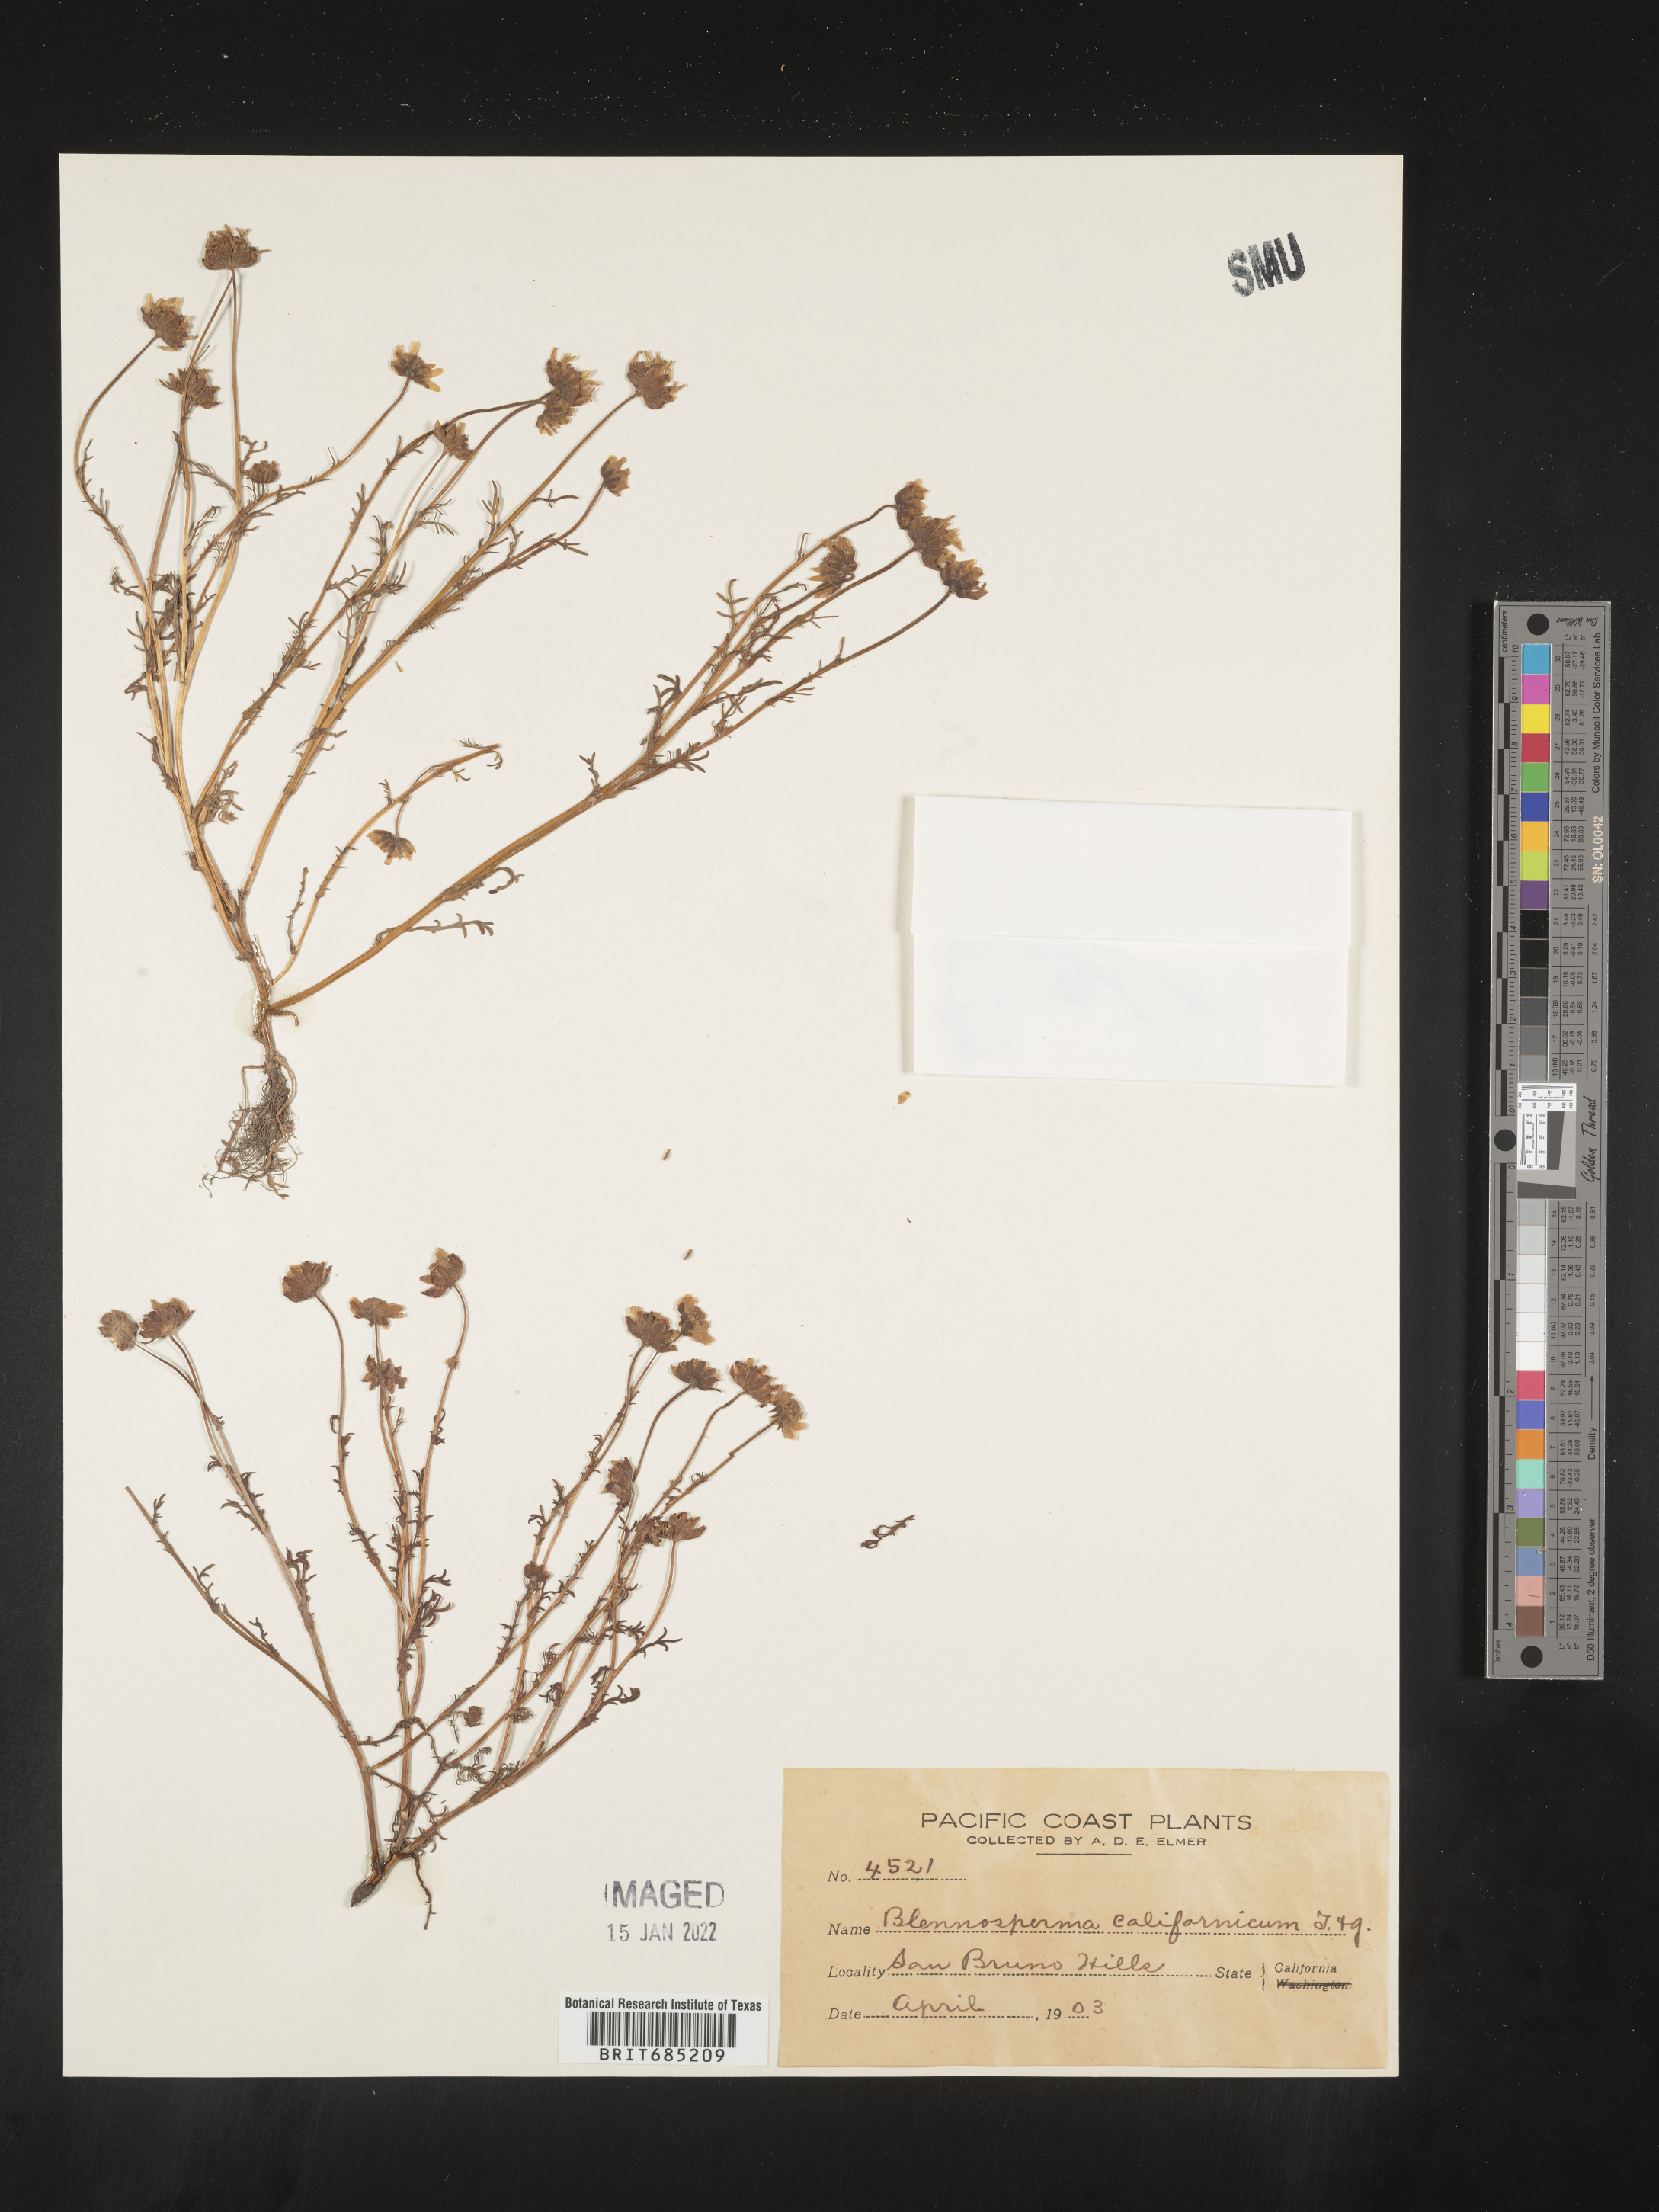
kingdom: Plantae
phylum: Tracheophyta
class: Magnoliopsida
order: Asterales
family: Asteraceae
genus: Blennosperma
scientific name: Blennosperma
